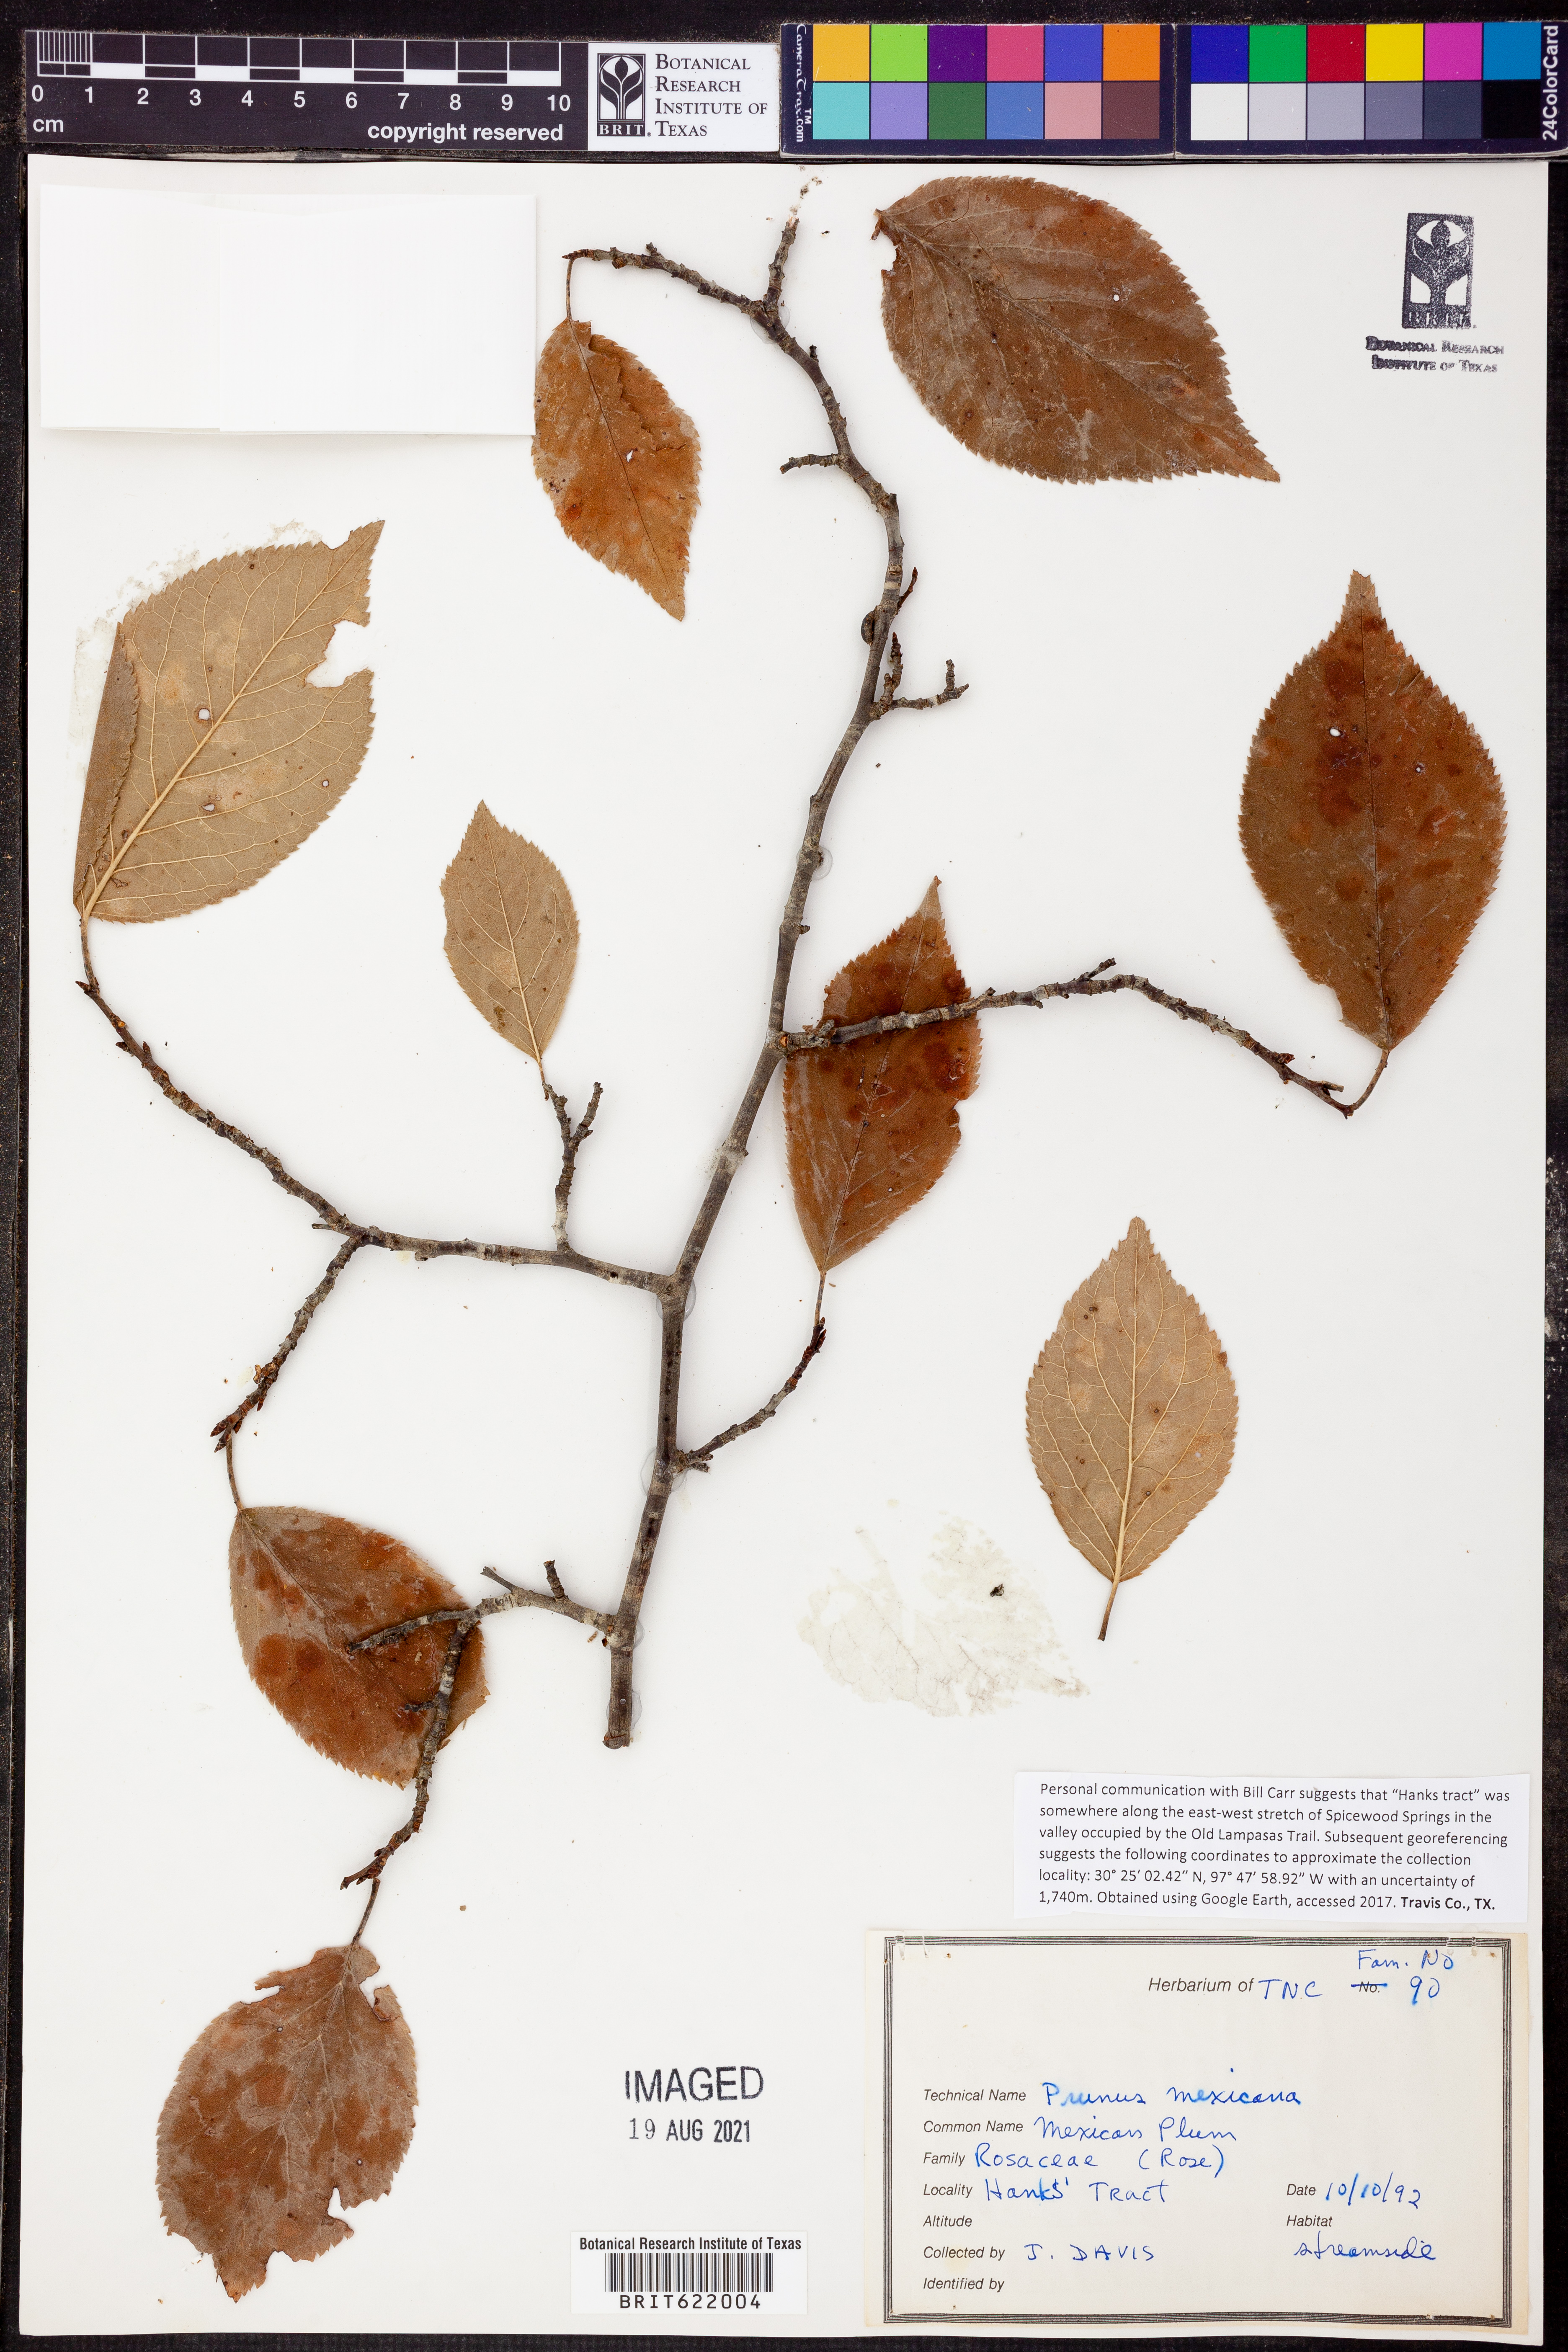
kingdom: Plantae
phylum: Tracheophyta
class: Magnoliopsida
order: Rosales
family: Rosaceae
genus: Prunus
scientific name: Prunus mexicana
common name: Mexican plum
